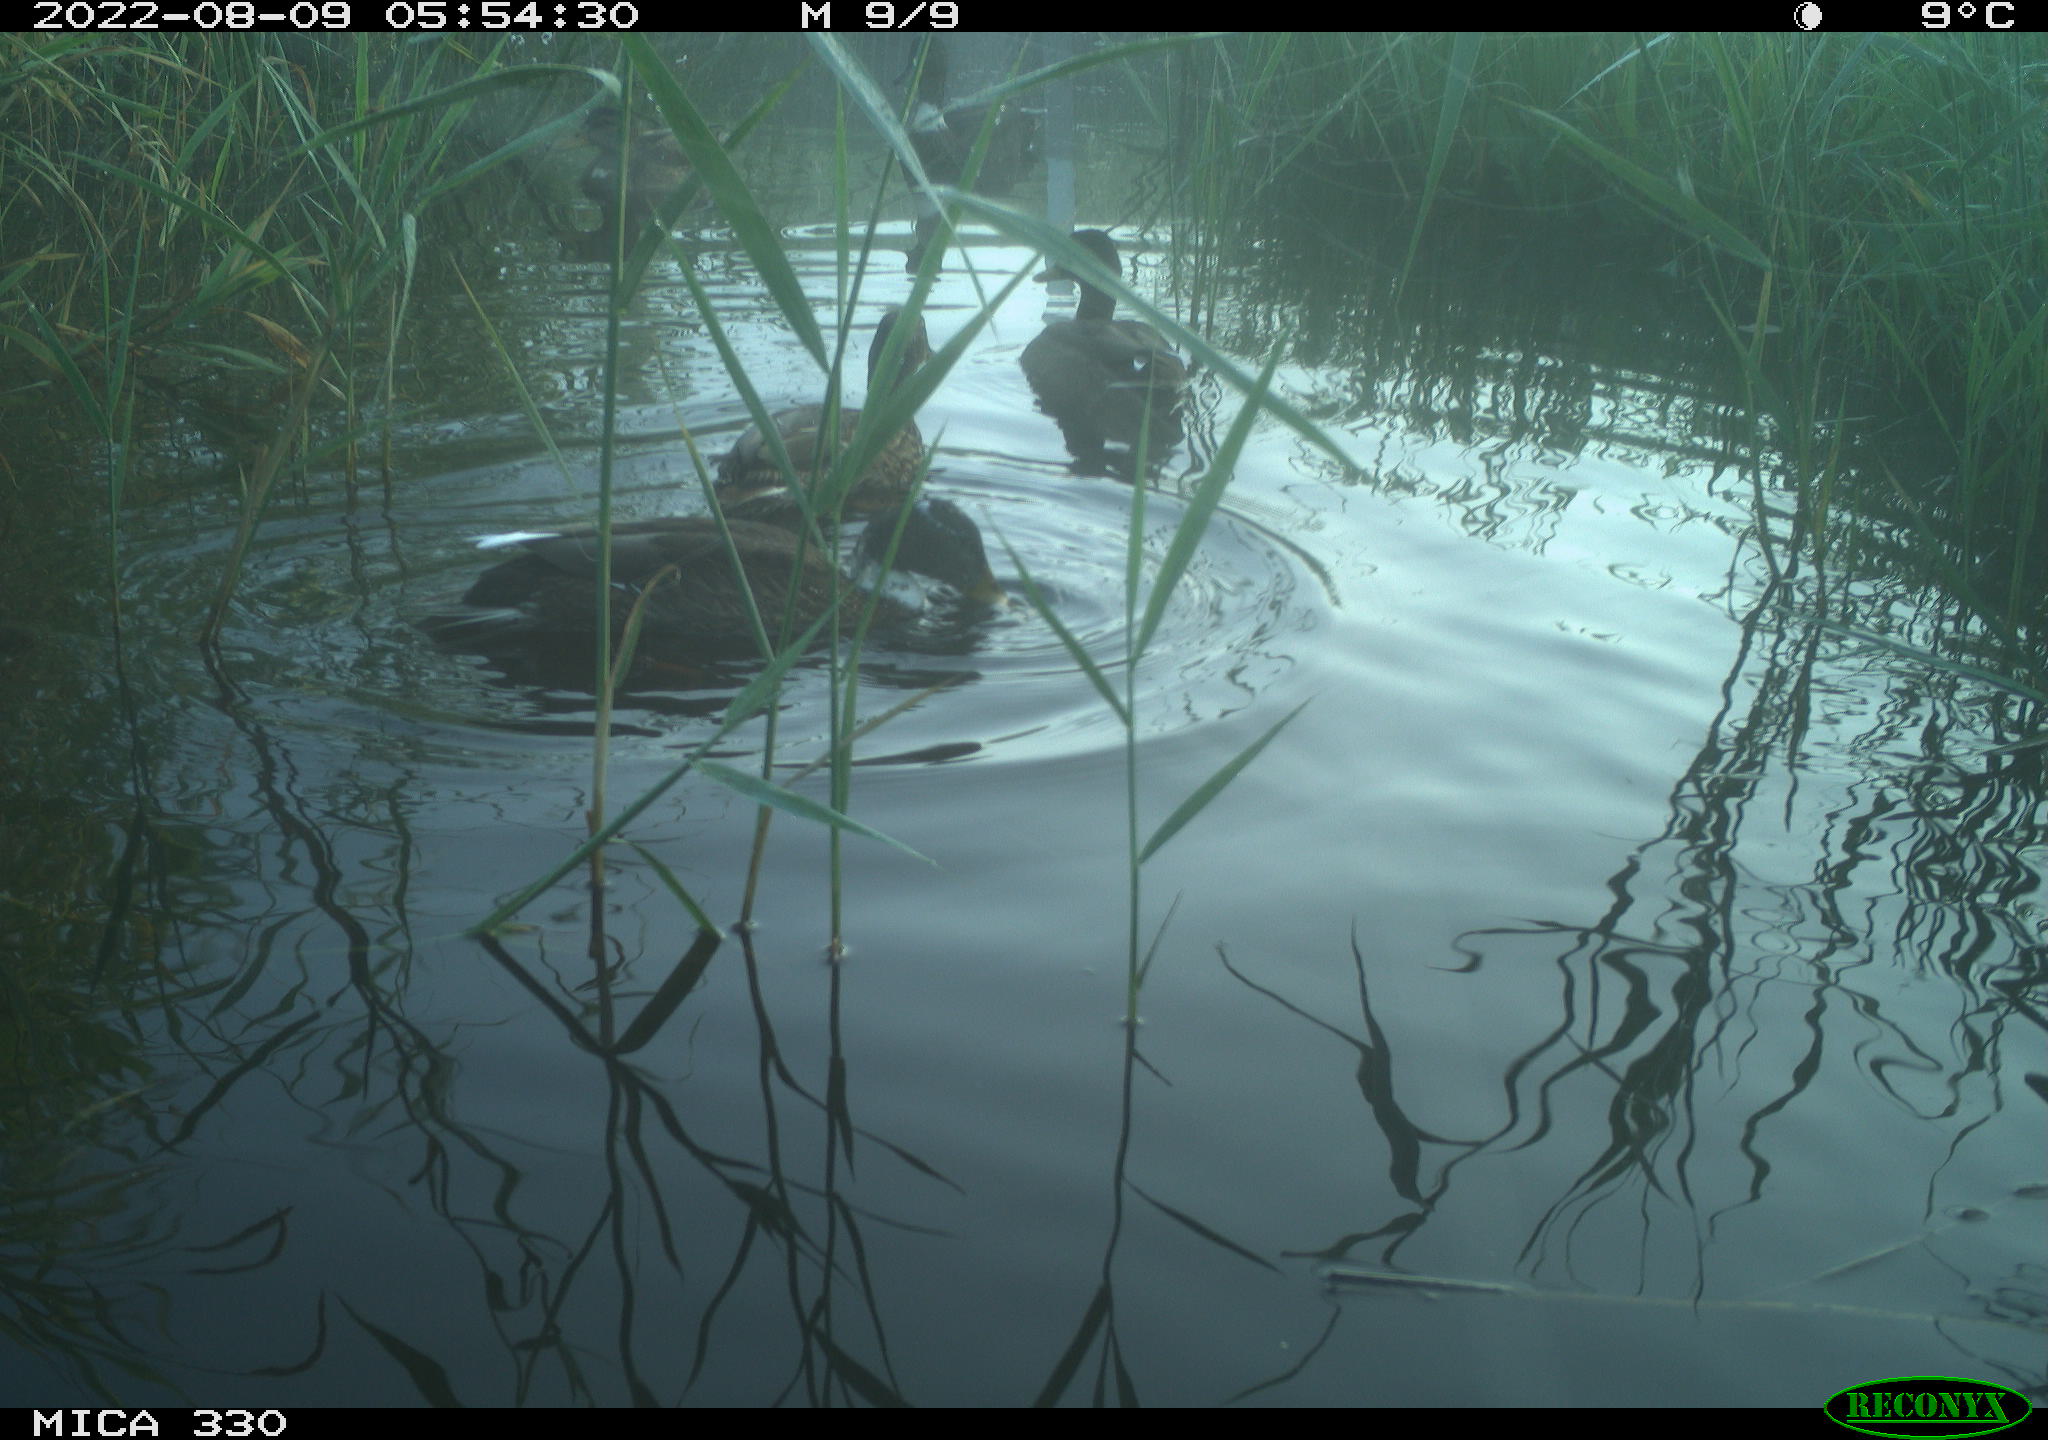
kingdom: Animalia
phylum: Chordata
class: Aves
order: Gruiformes
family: Rallidae
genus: Gallinula
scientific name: Gallinula chloropus
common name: Common moorhen
